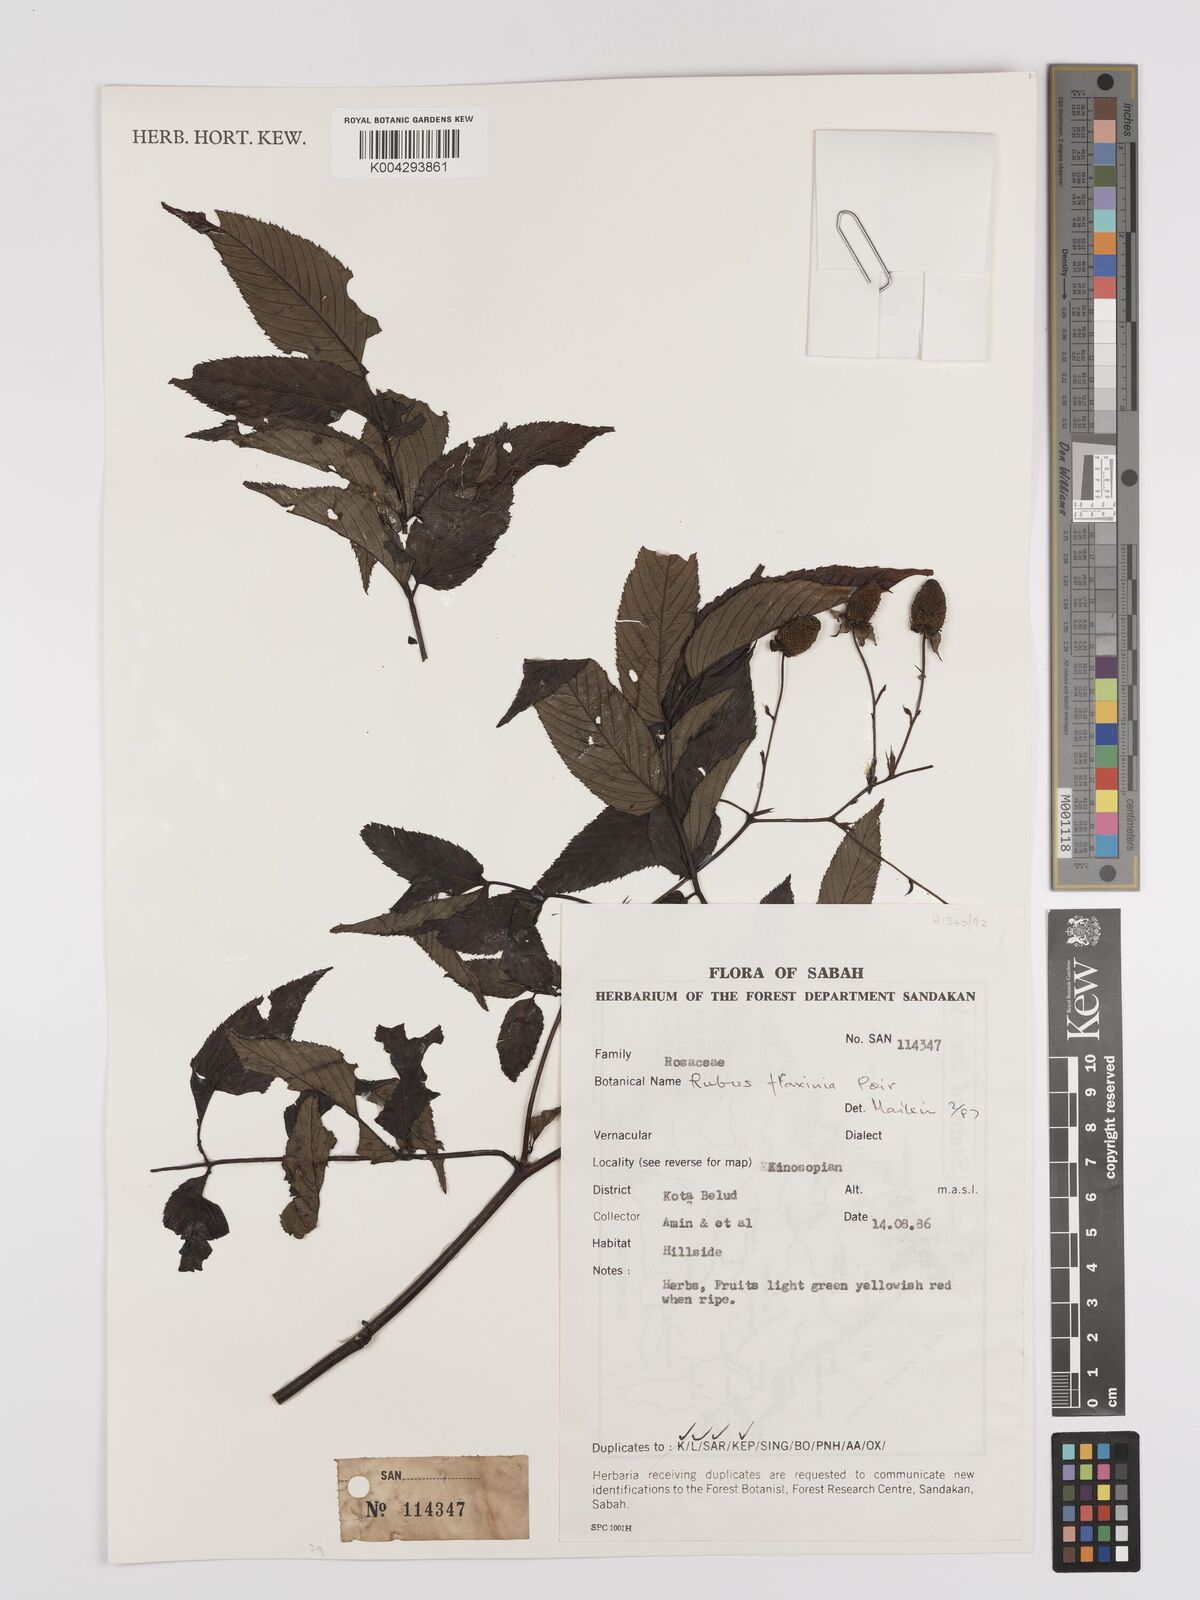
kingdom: Plantae
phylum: Tracheophyta
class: Magnoliopsida
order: Rosales
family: Rosaceae
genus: Rubus
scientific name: Rubus fraxinifolius
